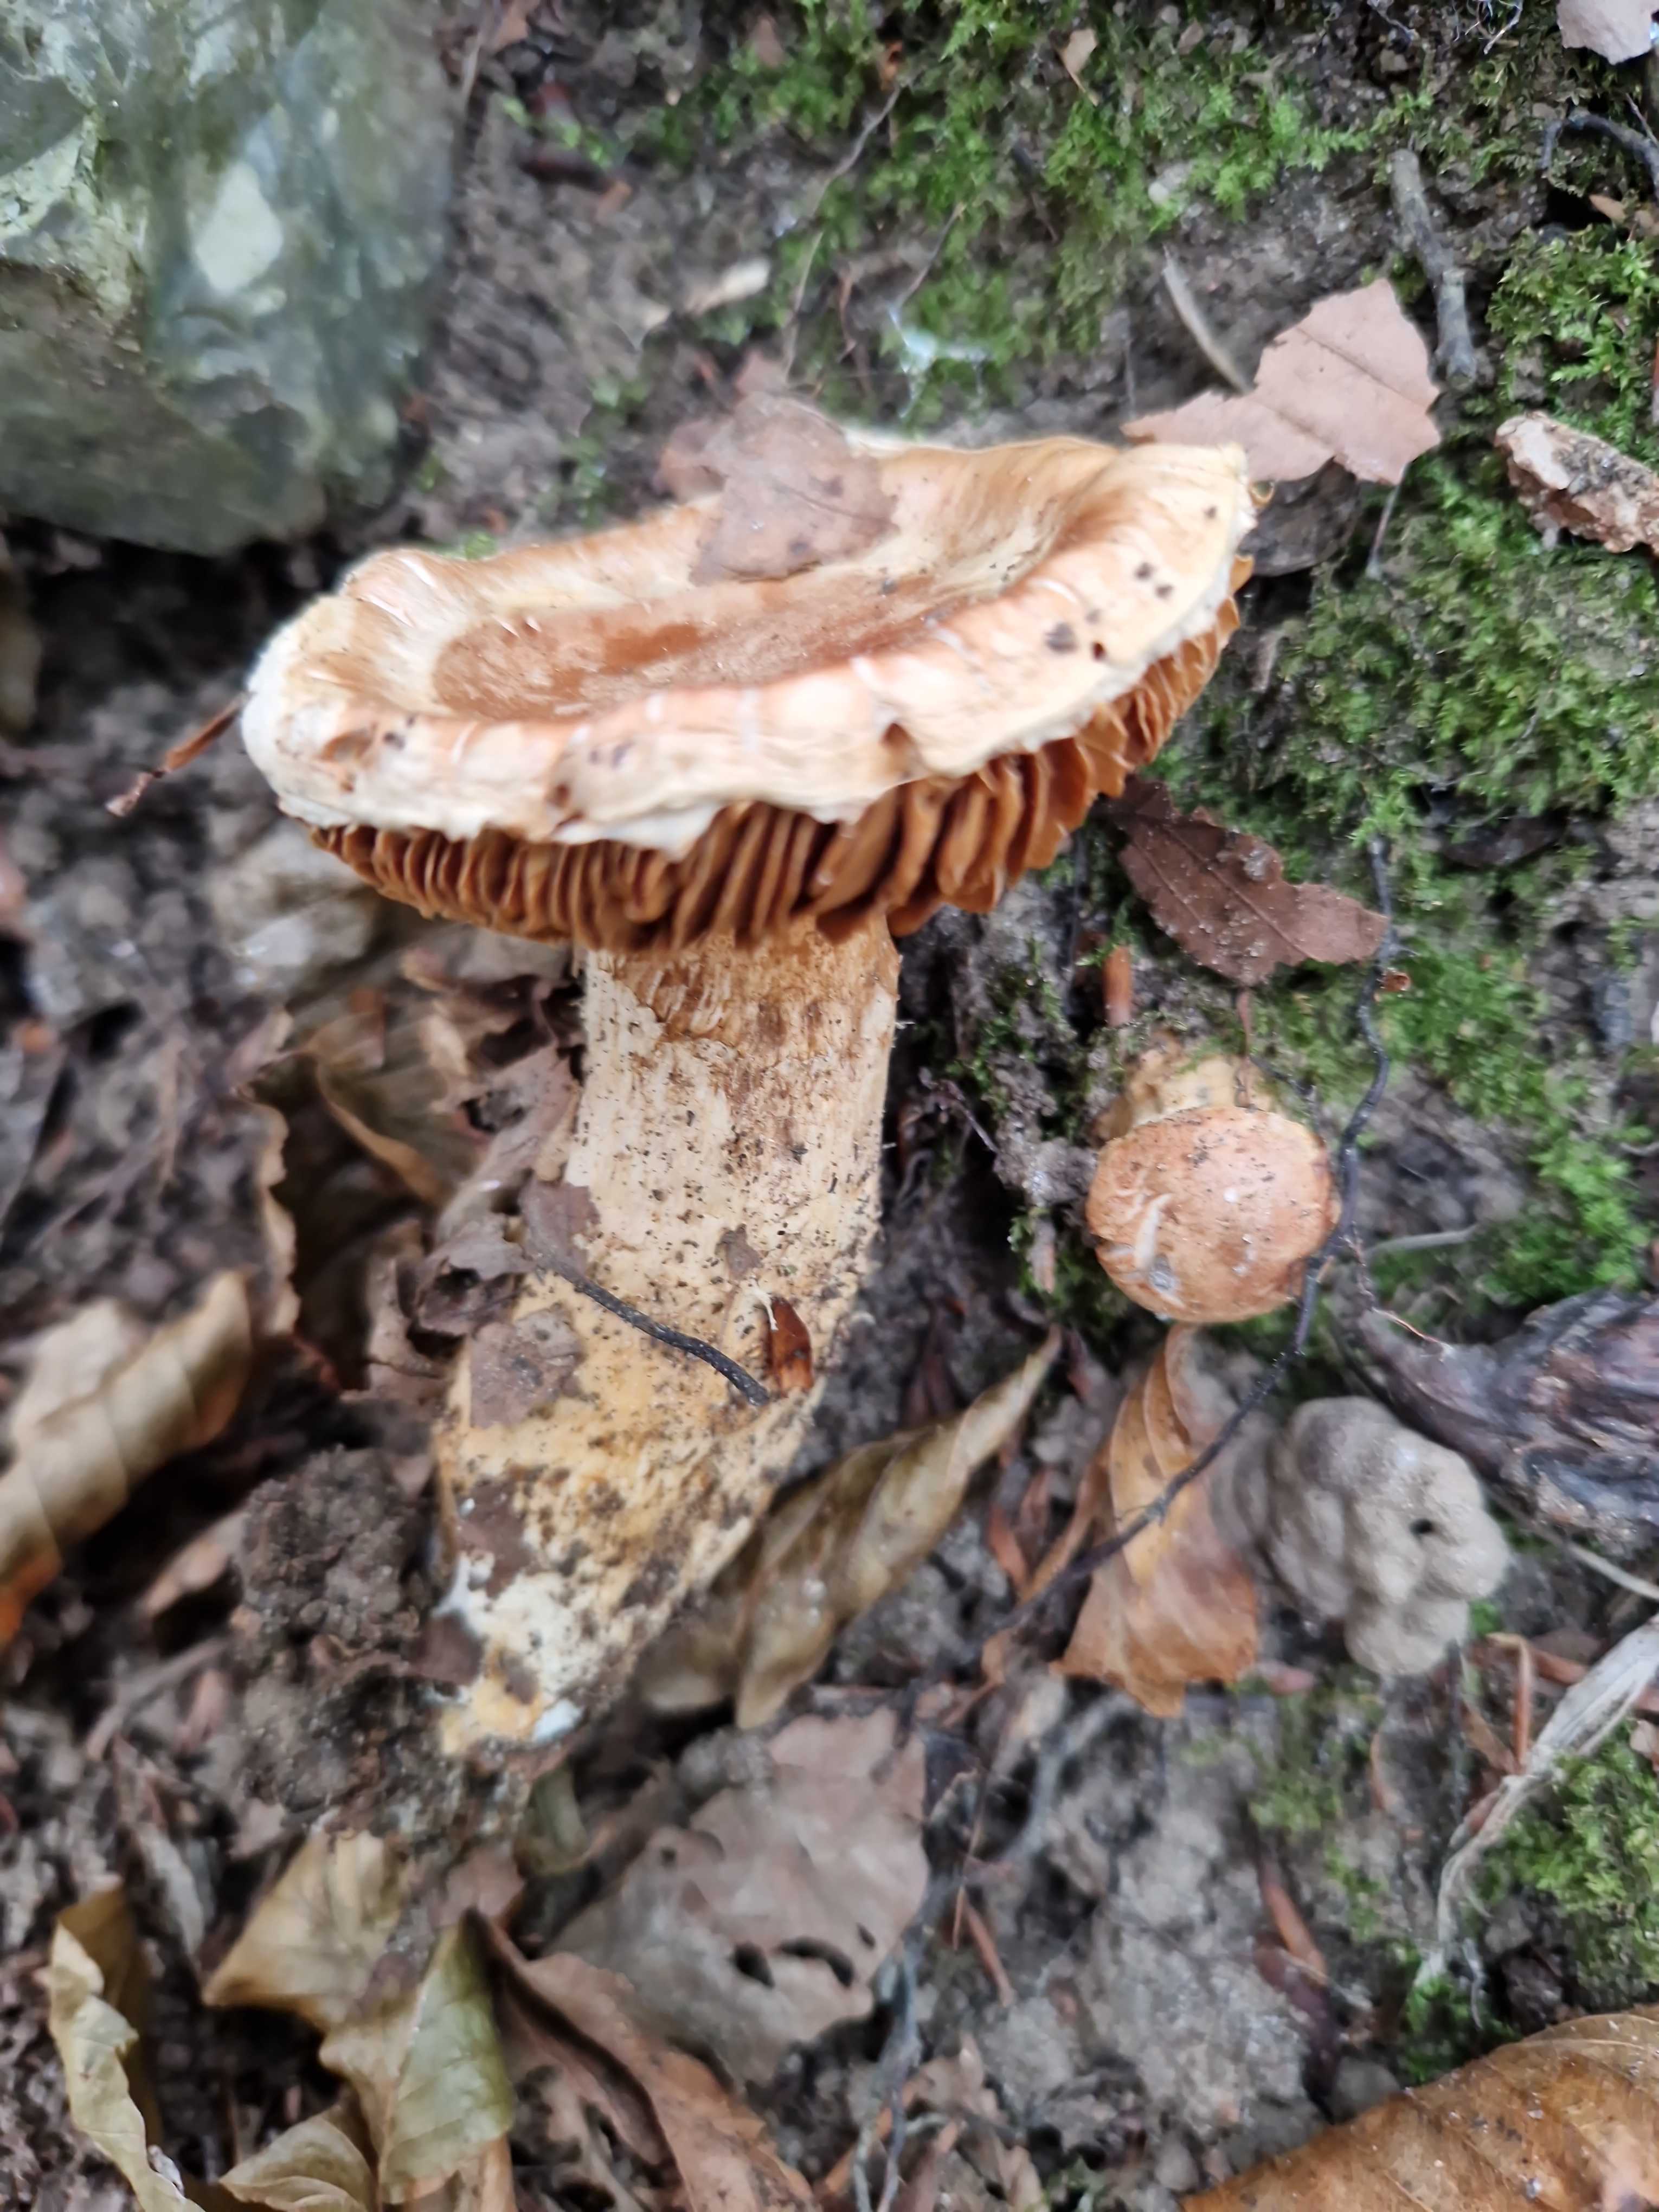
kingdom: Fungi
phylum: Basidiomycota
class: Agaricomycetes
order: Agaricales
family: Cortinariaceae
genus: Phlegmacium
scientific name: Phlegmacium vulpinum
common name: ringbæltet slørhat
